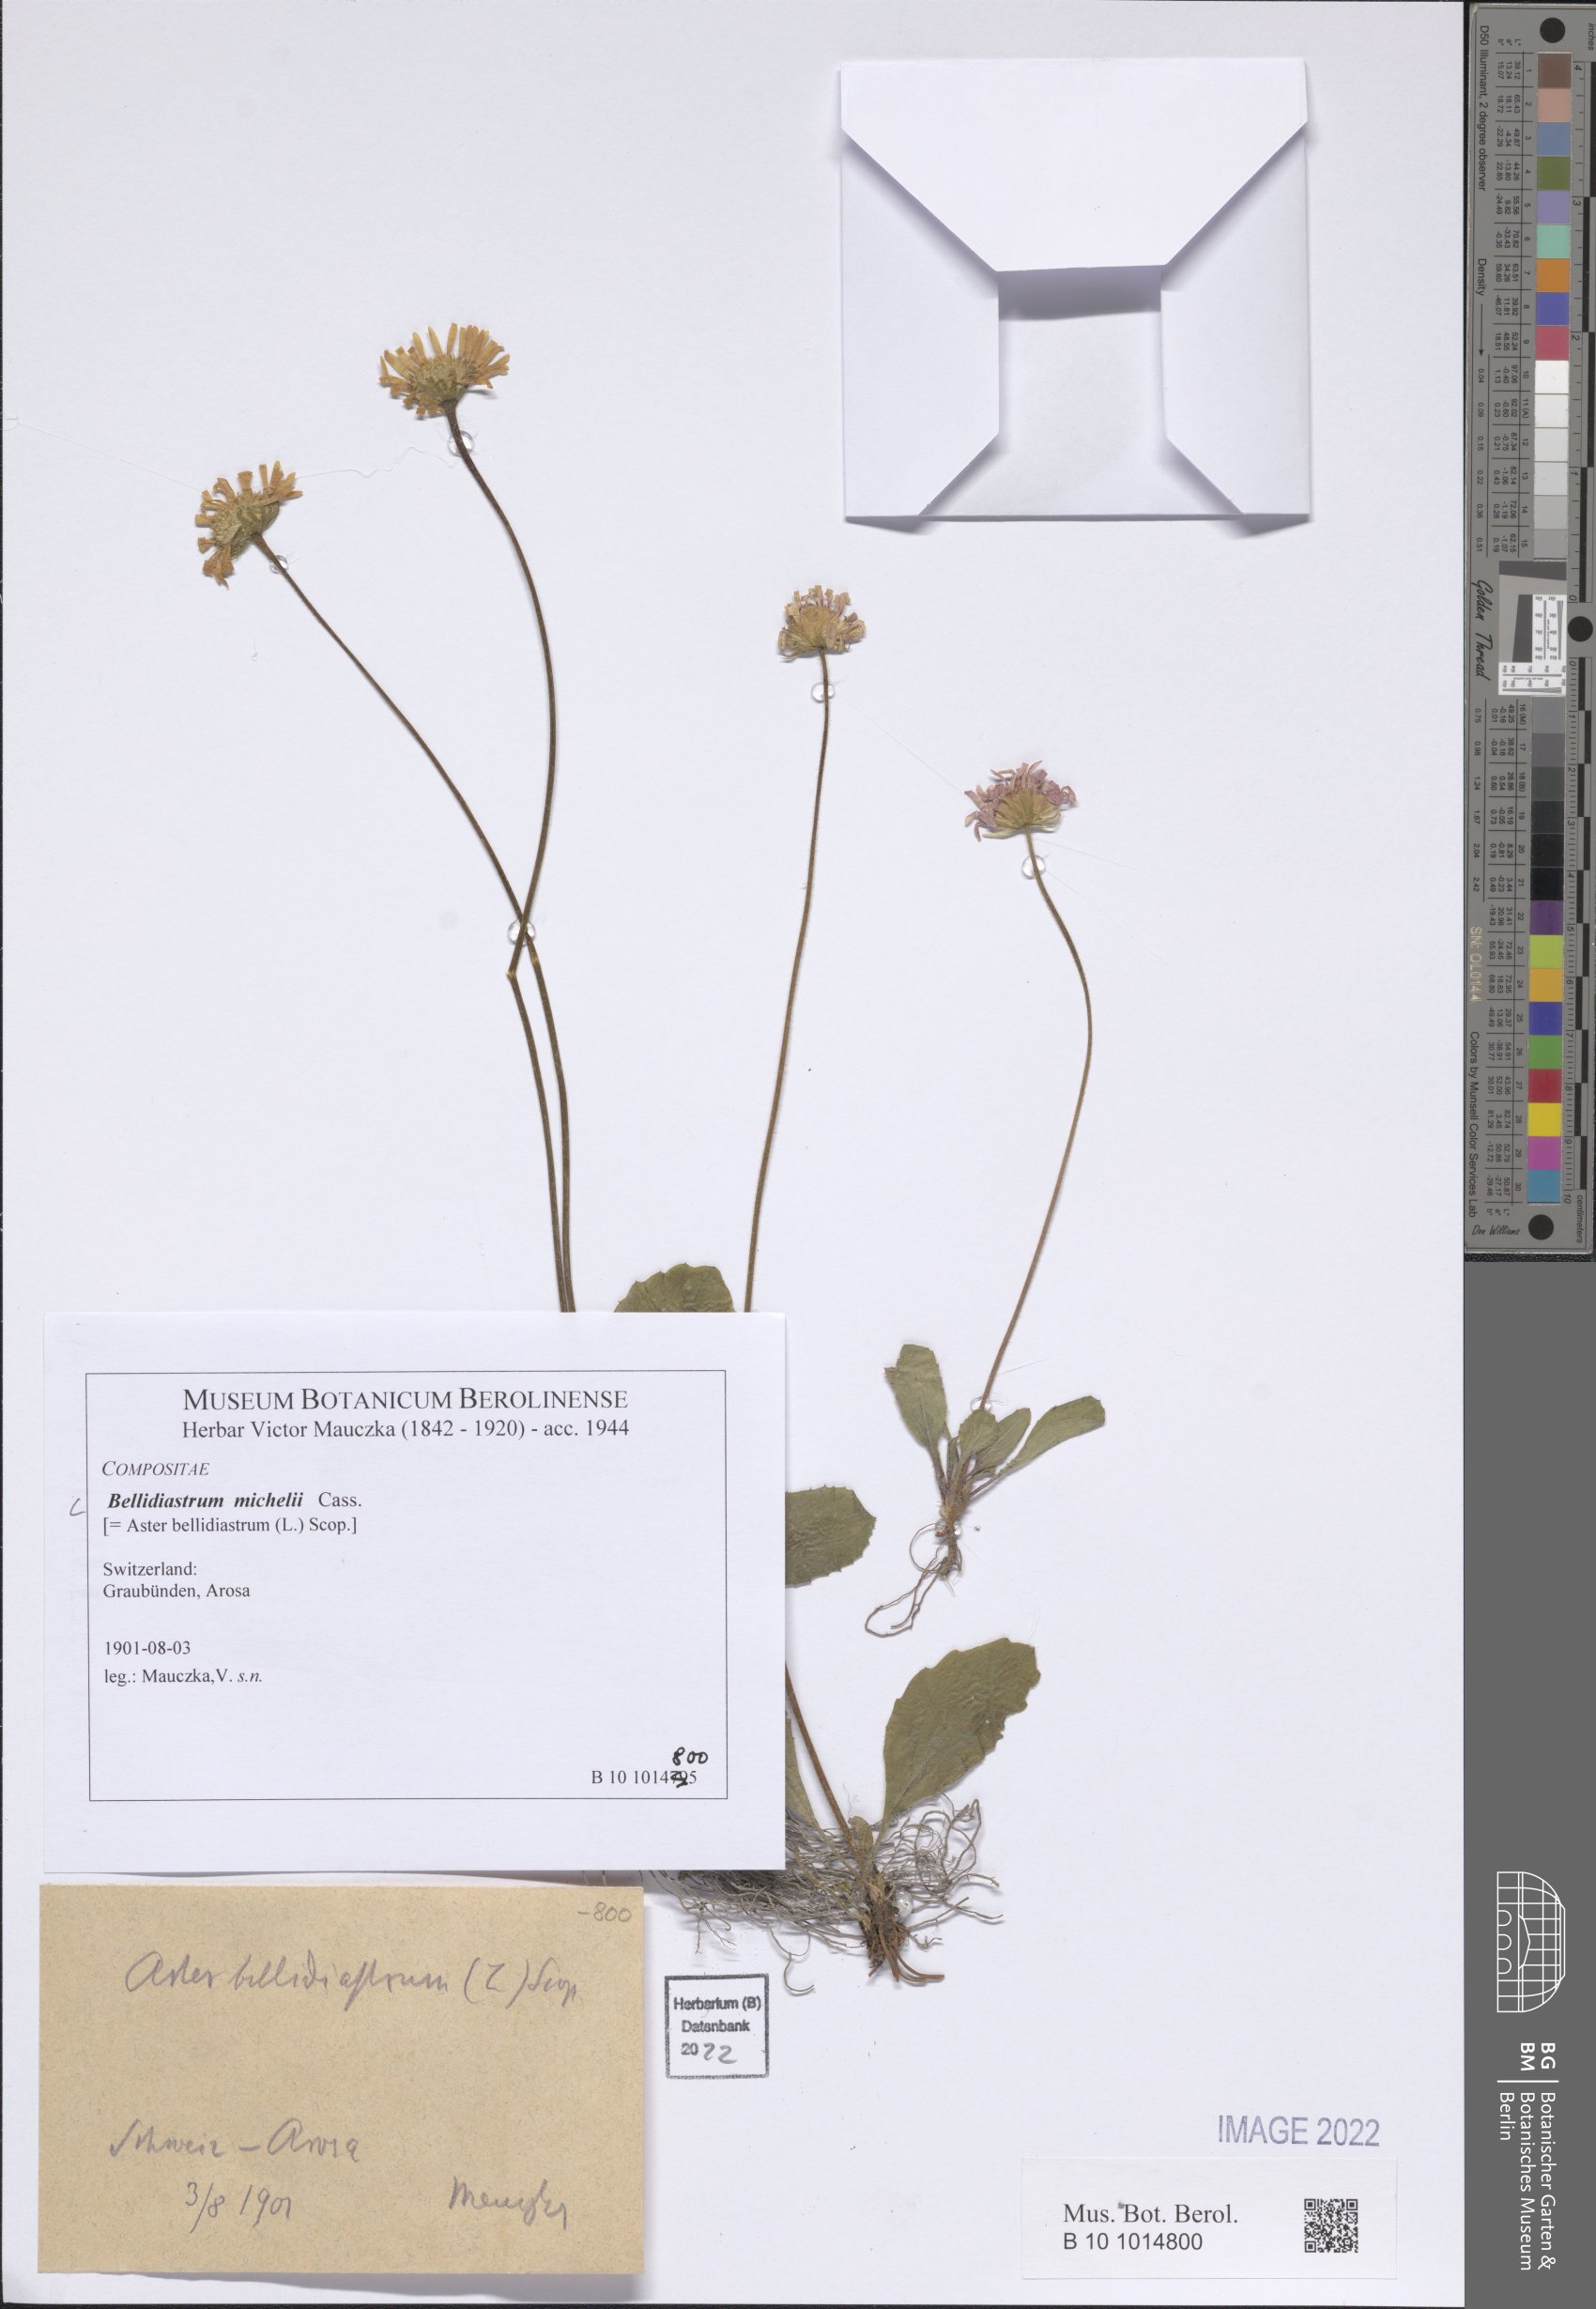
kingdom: Plantae
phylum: Tracheophyta
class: Magnoliopsida
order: Asterales
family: Asteraceae
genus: Bellidiastrum
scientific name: Bellidiastrum michelii
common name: Daisy-star aster
